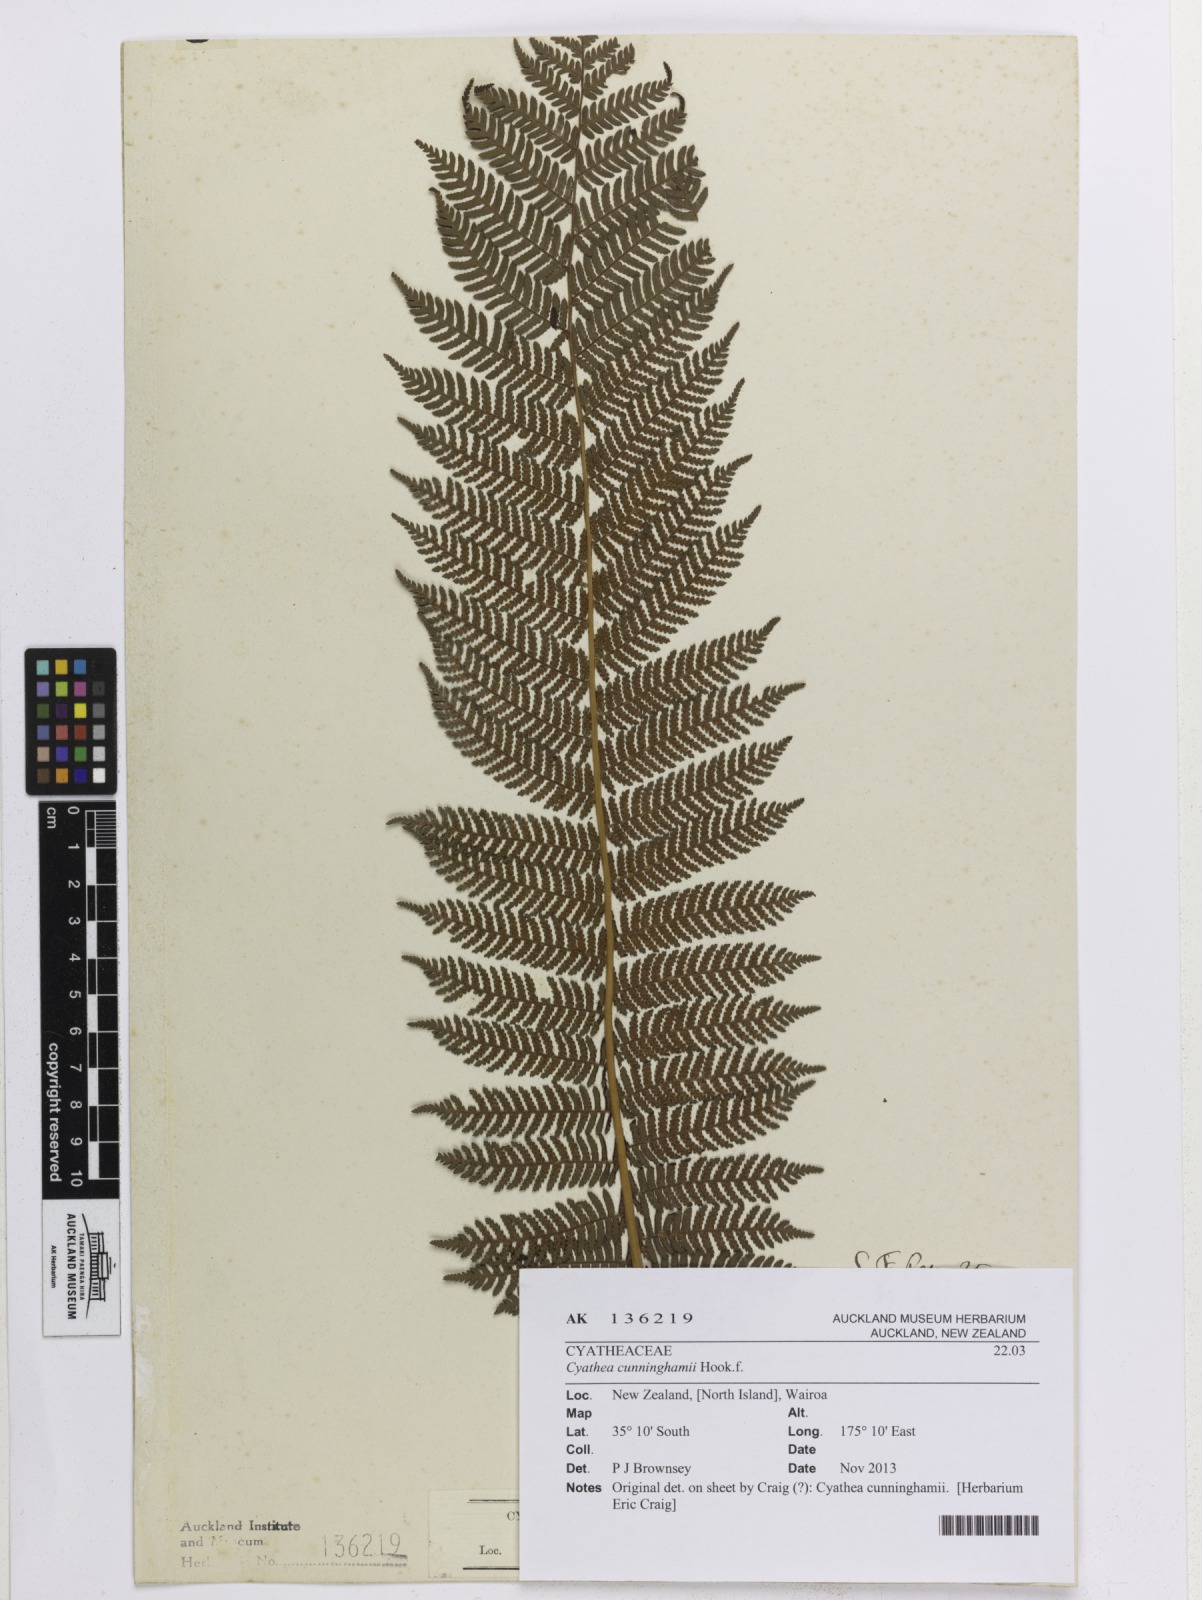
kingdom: Plantae
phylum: Tracheophyta
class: Polypodiopsida
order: Cyatheales
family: Cyatheaceae
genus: Alsophila
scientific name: Alsophila cunninghamii
